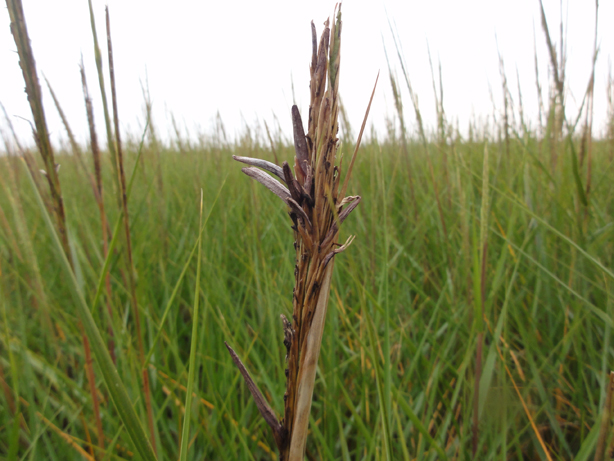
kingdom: Fungi
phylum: Ascomycota
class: Sordariomycetes
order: Hypocreales
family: Clavicipitaceae
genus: Claviceps
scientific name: Claviceps purpurea
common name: almindelig meldrøjer
